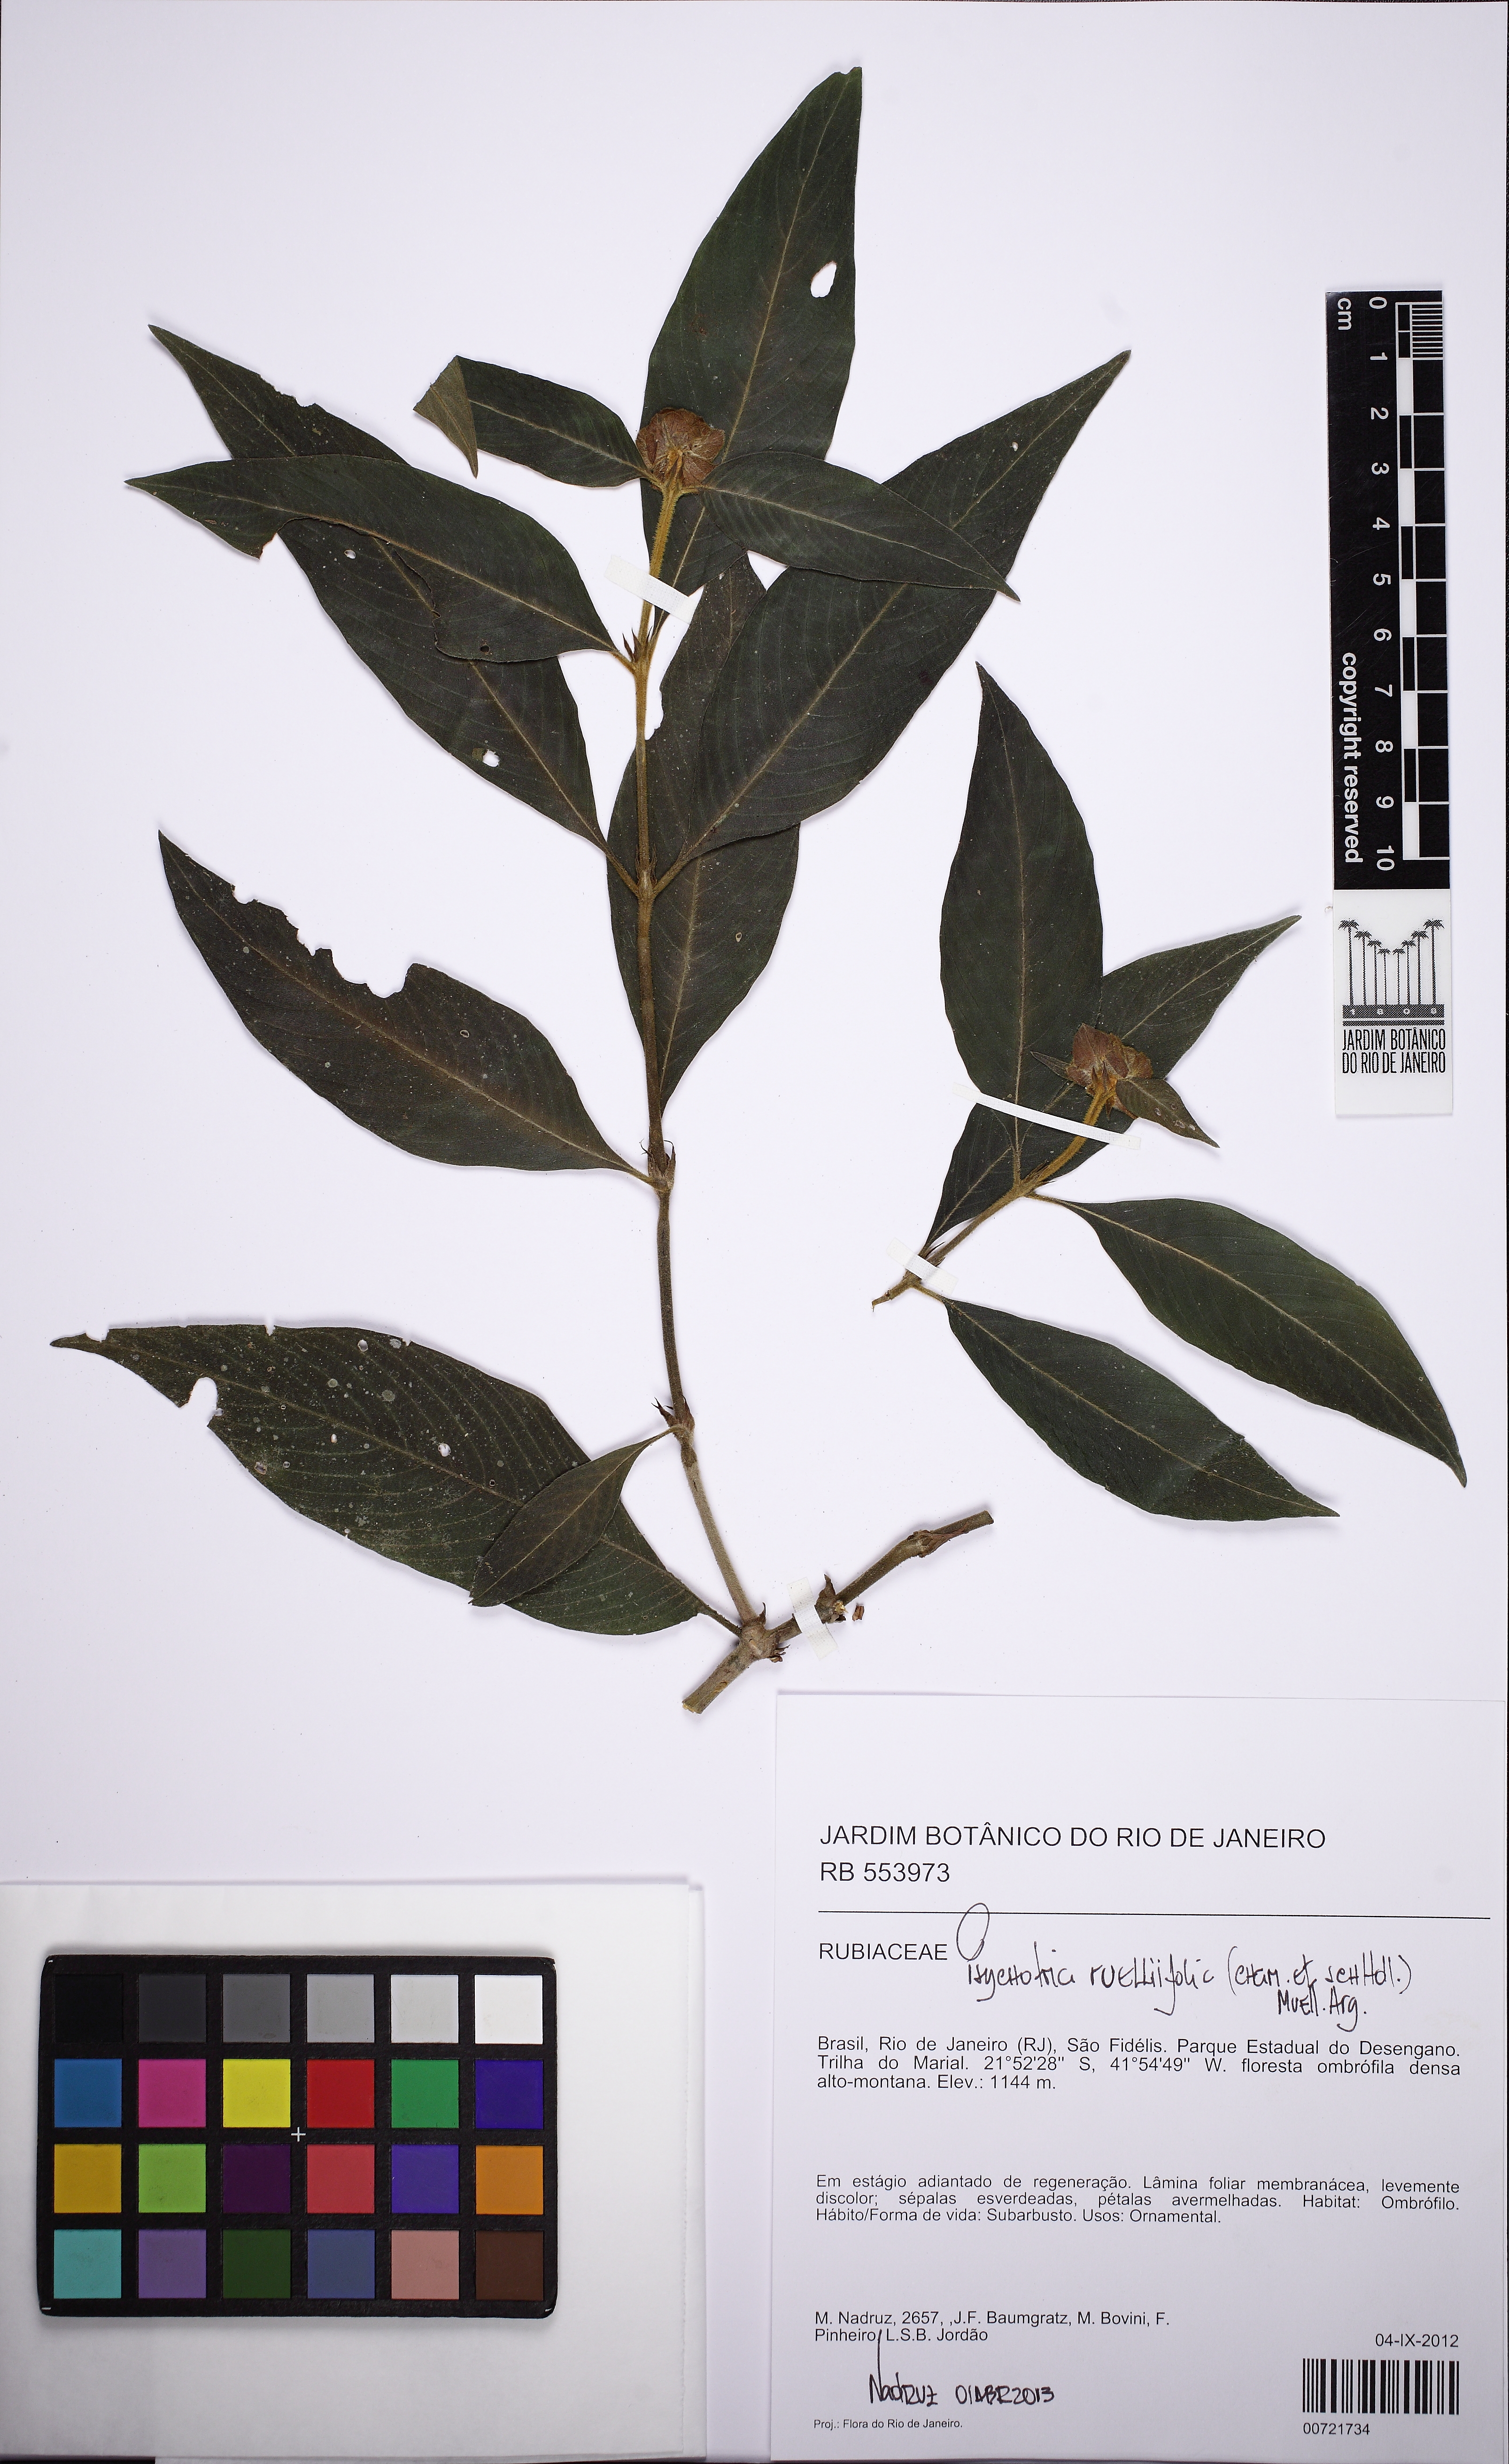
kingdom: Plantae
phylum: Tracheophyta
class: Magnoliopsida
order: Gentianales
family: Rubiaceae
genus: Palicourea
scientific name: Palicourea ruelliifolia
